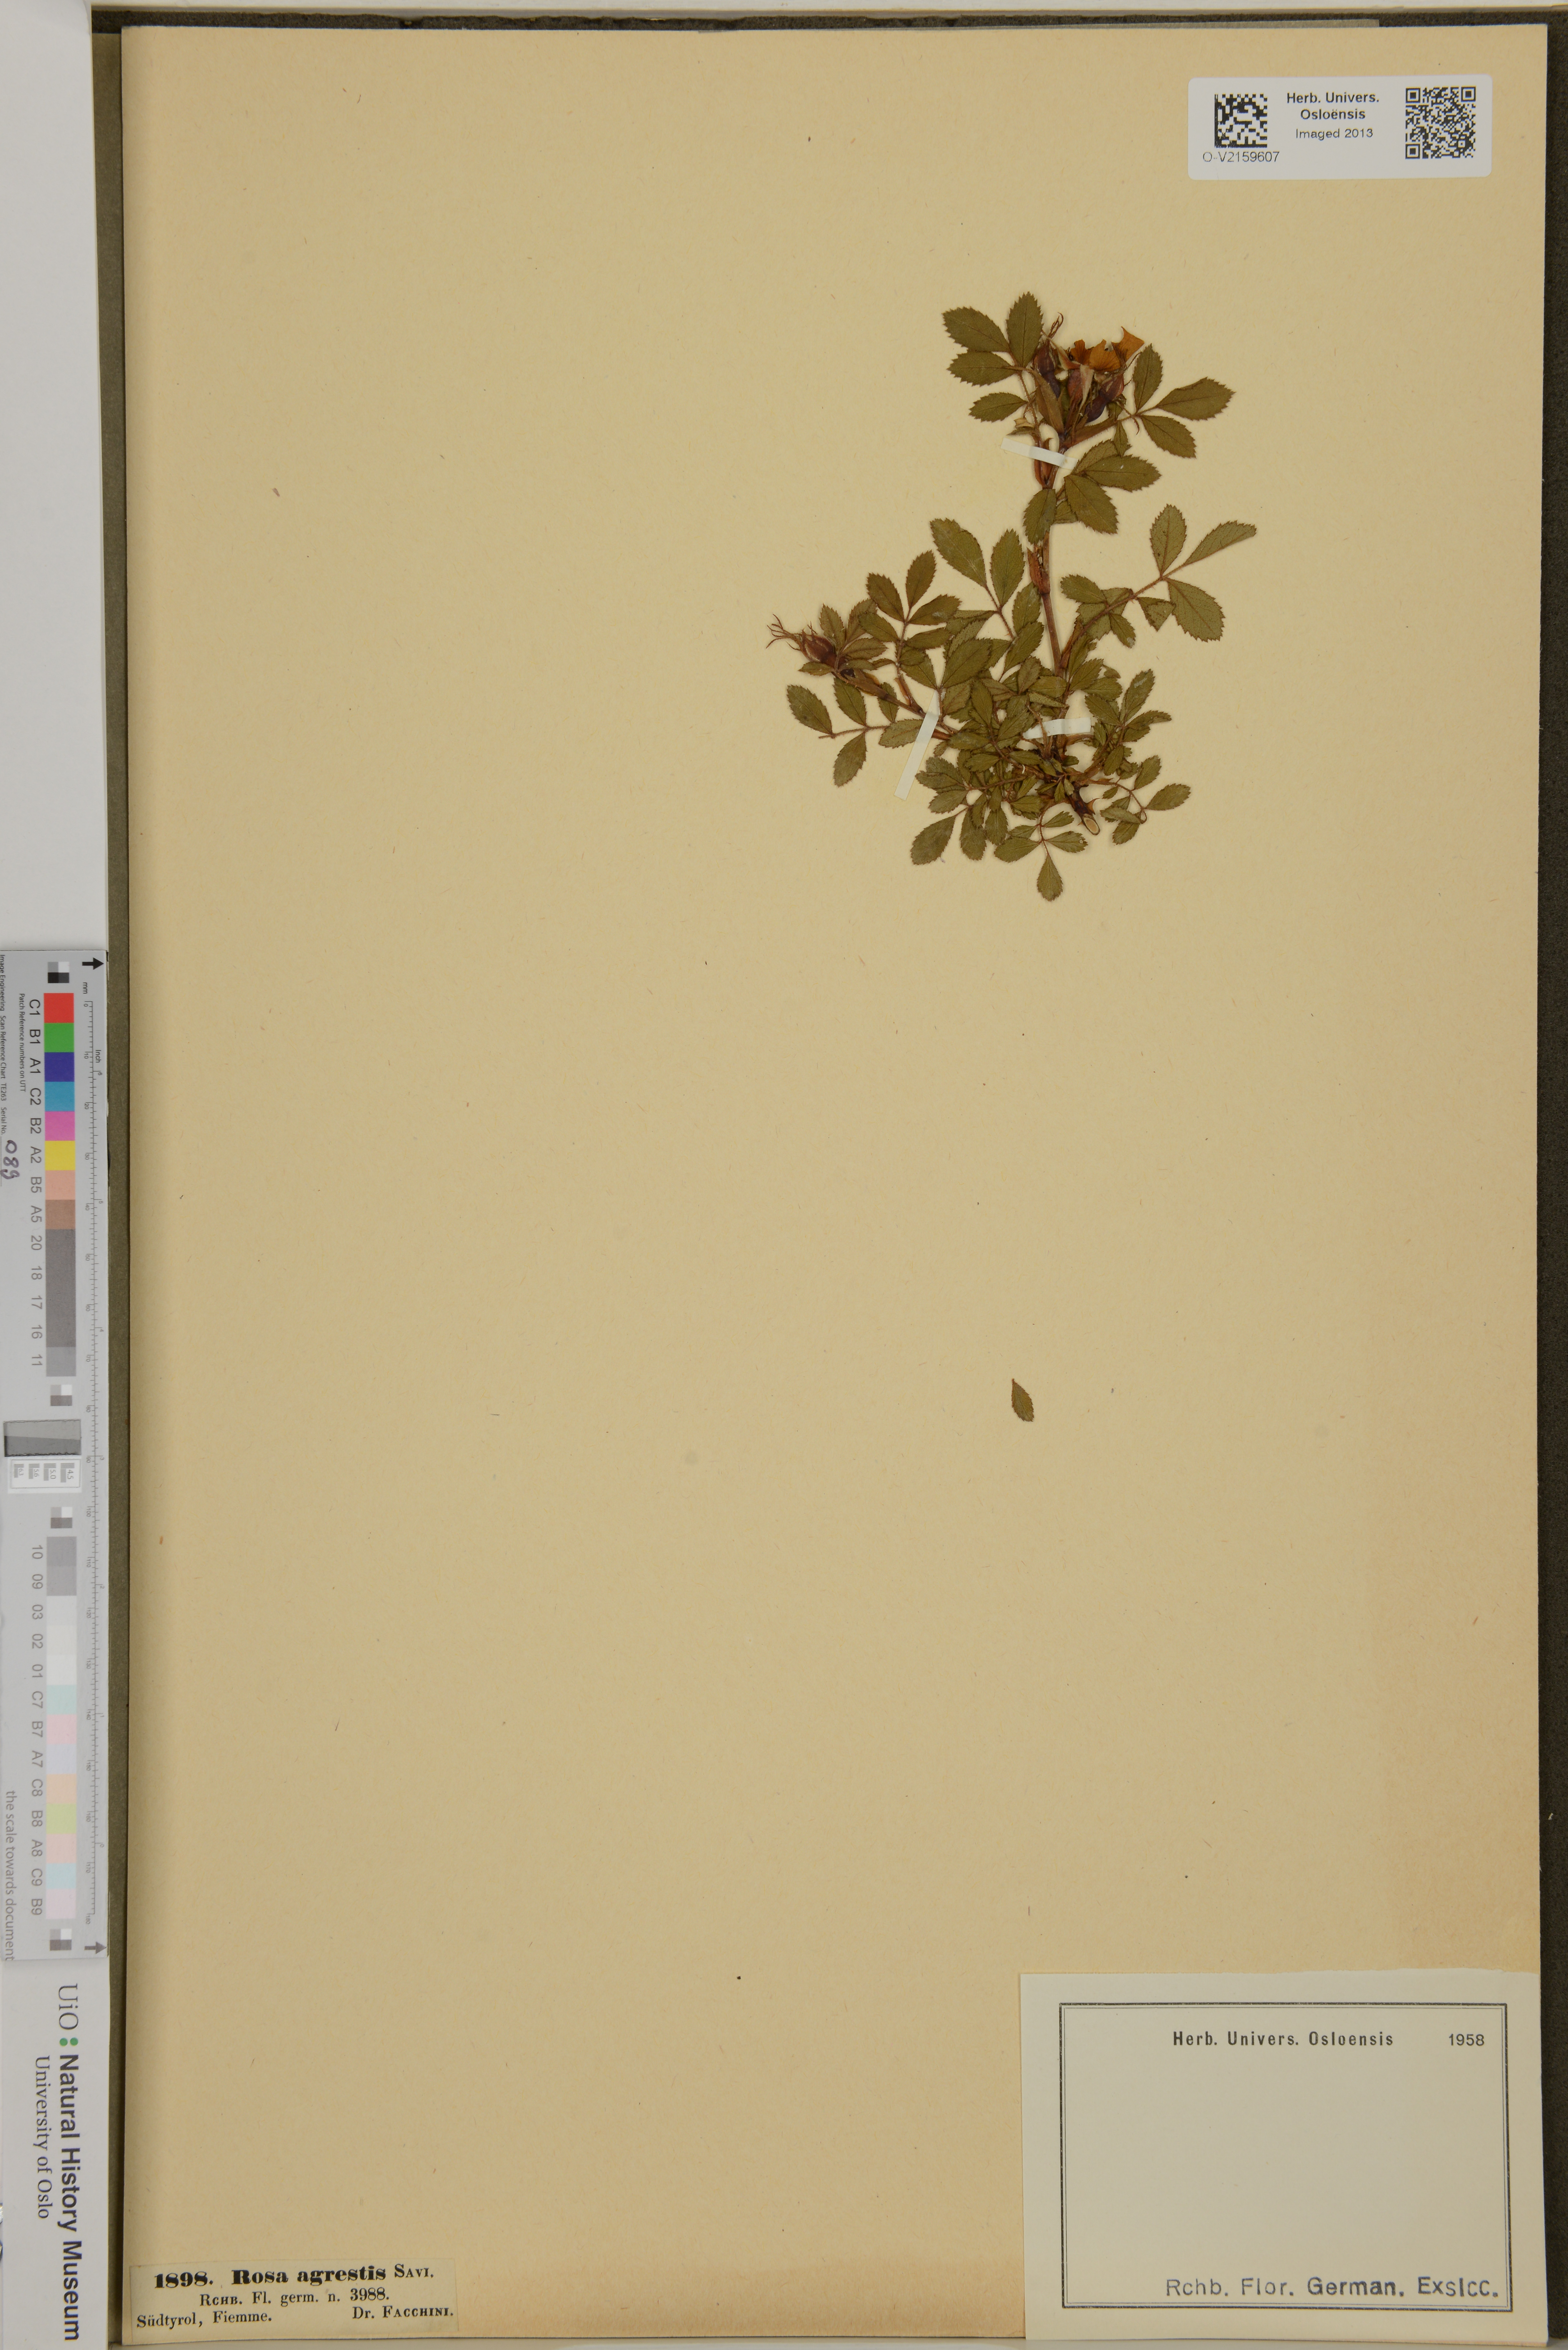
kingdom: Plantae
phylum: Tracheophyta
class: Magnoliopsida
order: Rosales
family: Rosaceae
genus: Rosa
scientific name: Rosa agrestis
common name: Fieldbriar
